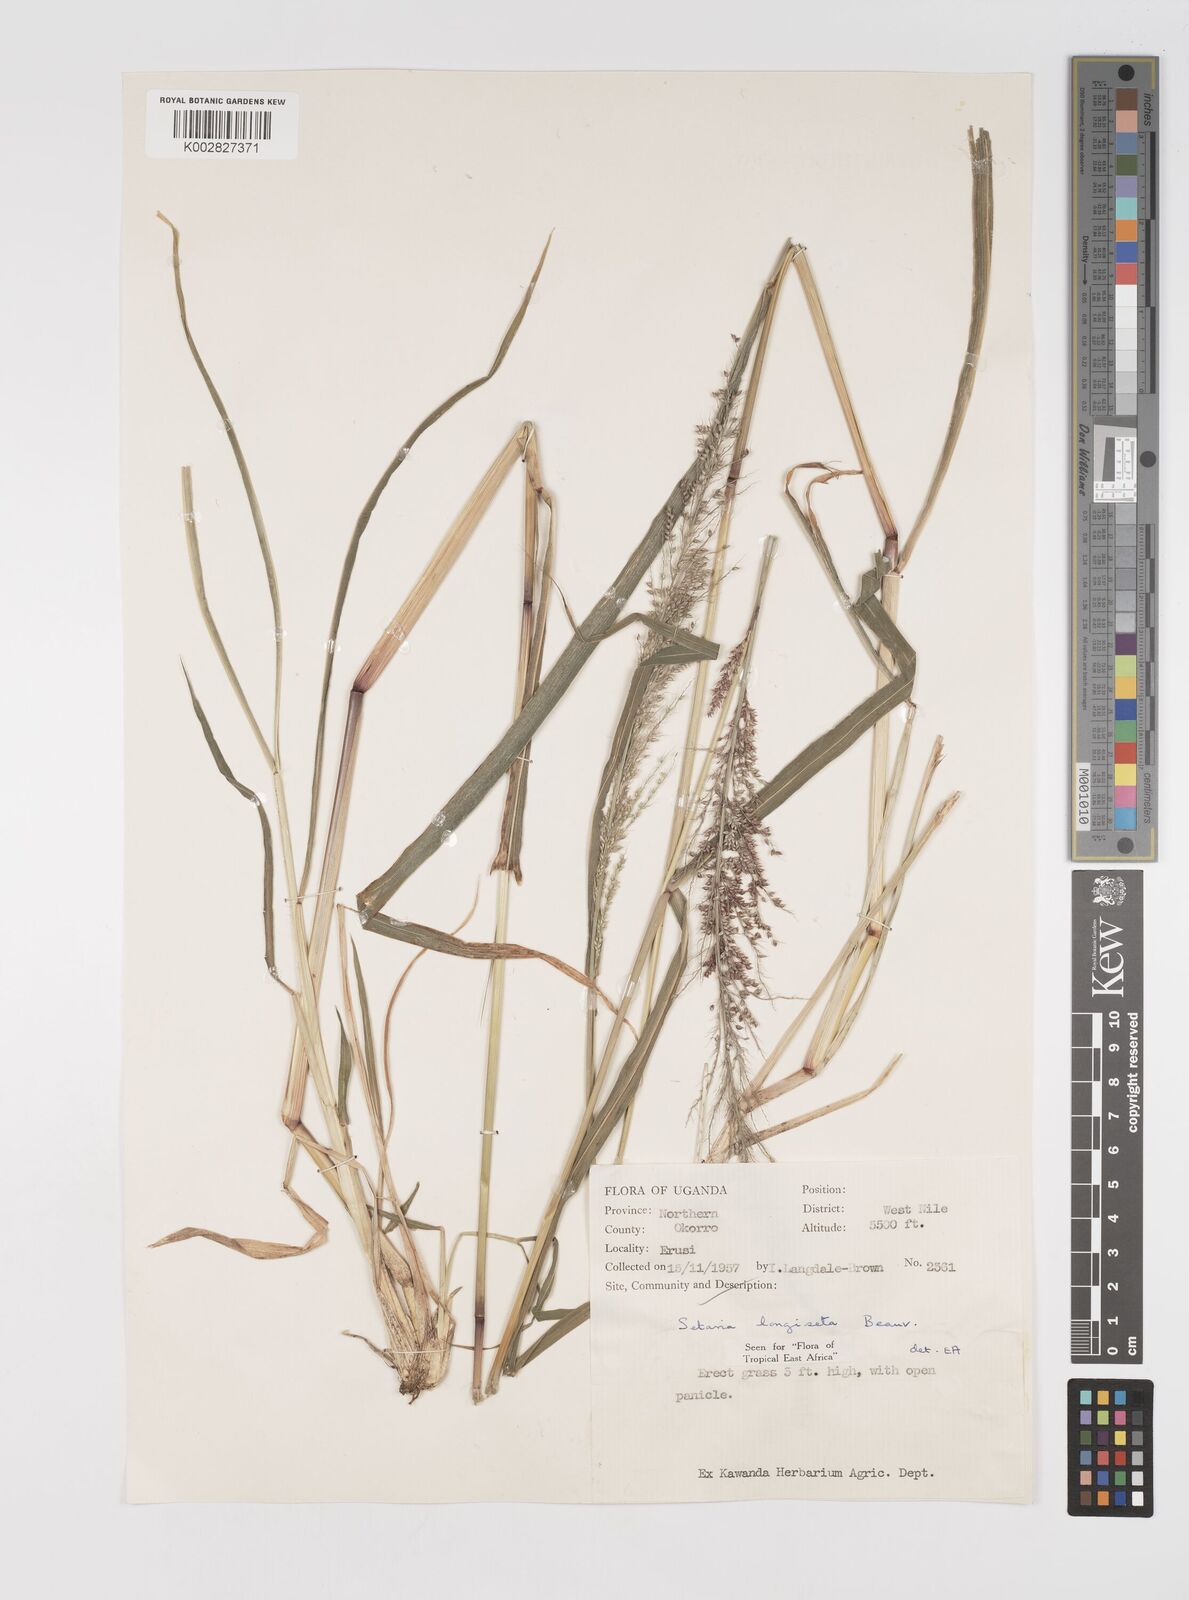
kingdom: Plantae
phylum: Tracheophyta
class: Liliopsida
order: Poales
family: Poaceae
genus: Setaria
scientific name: Setaria longiseta
